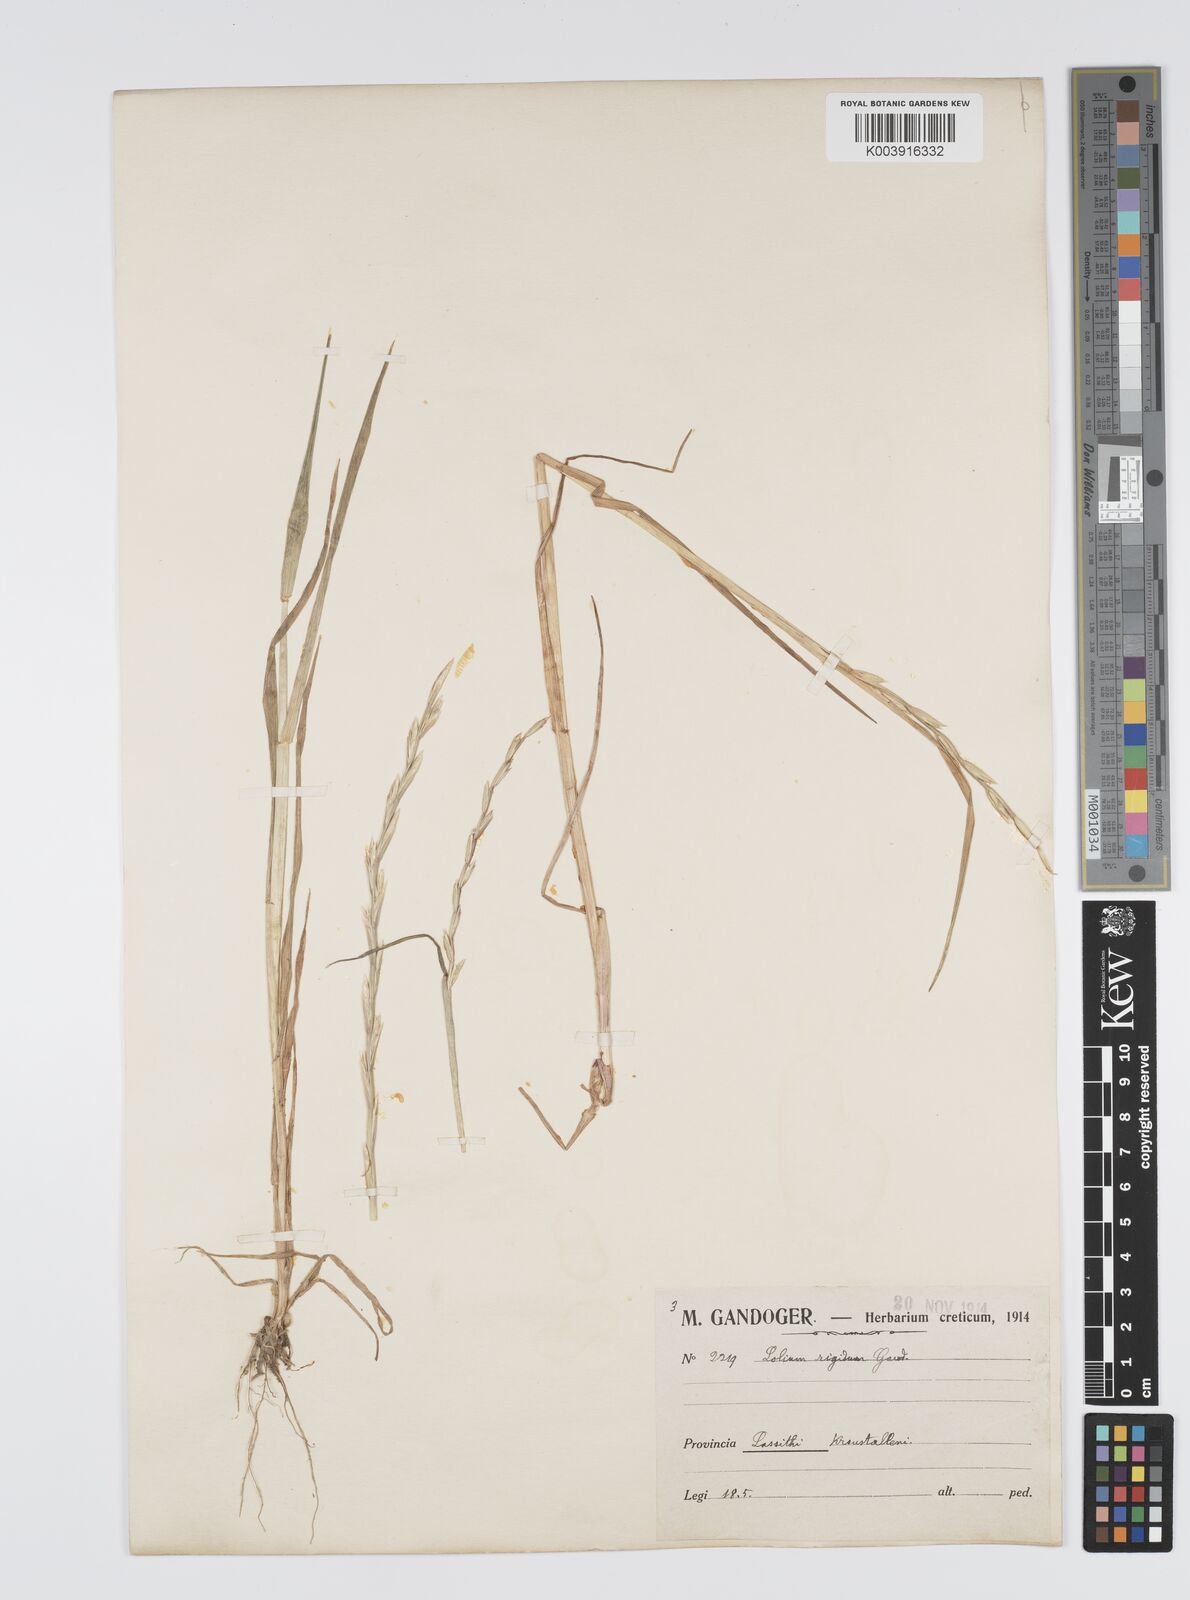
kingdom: Plantae
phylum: Tracheophyta
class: Liliopsida
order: Poales
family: Poaceae
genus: Lolium
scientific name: Lolium rigidum
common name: Wimmera ryegrass
